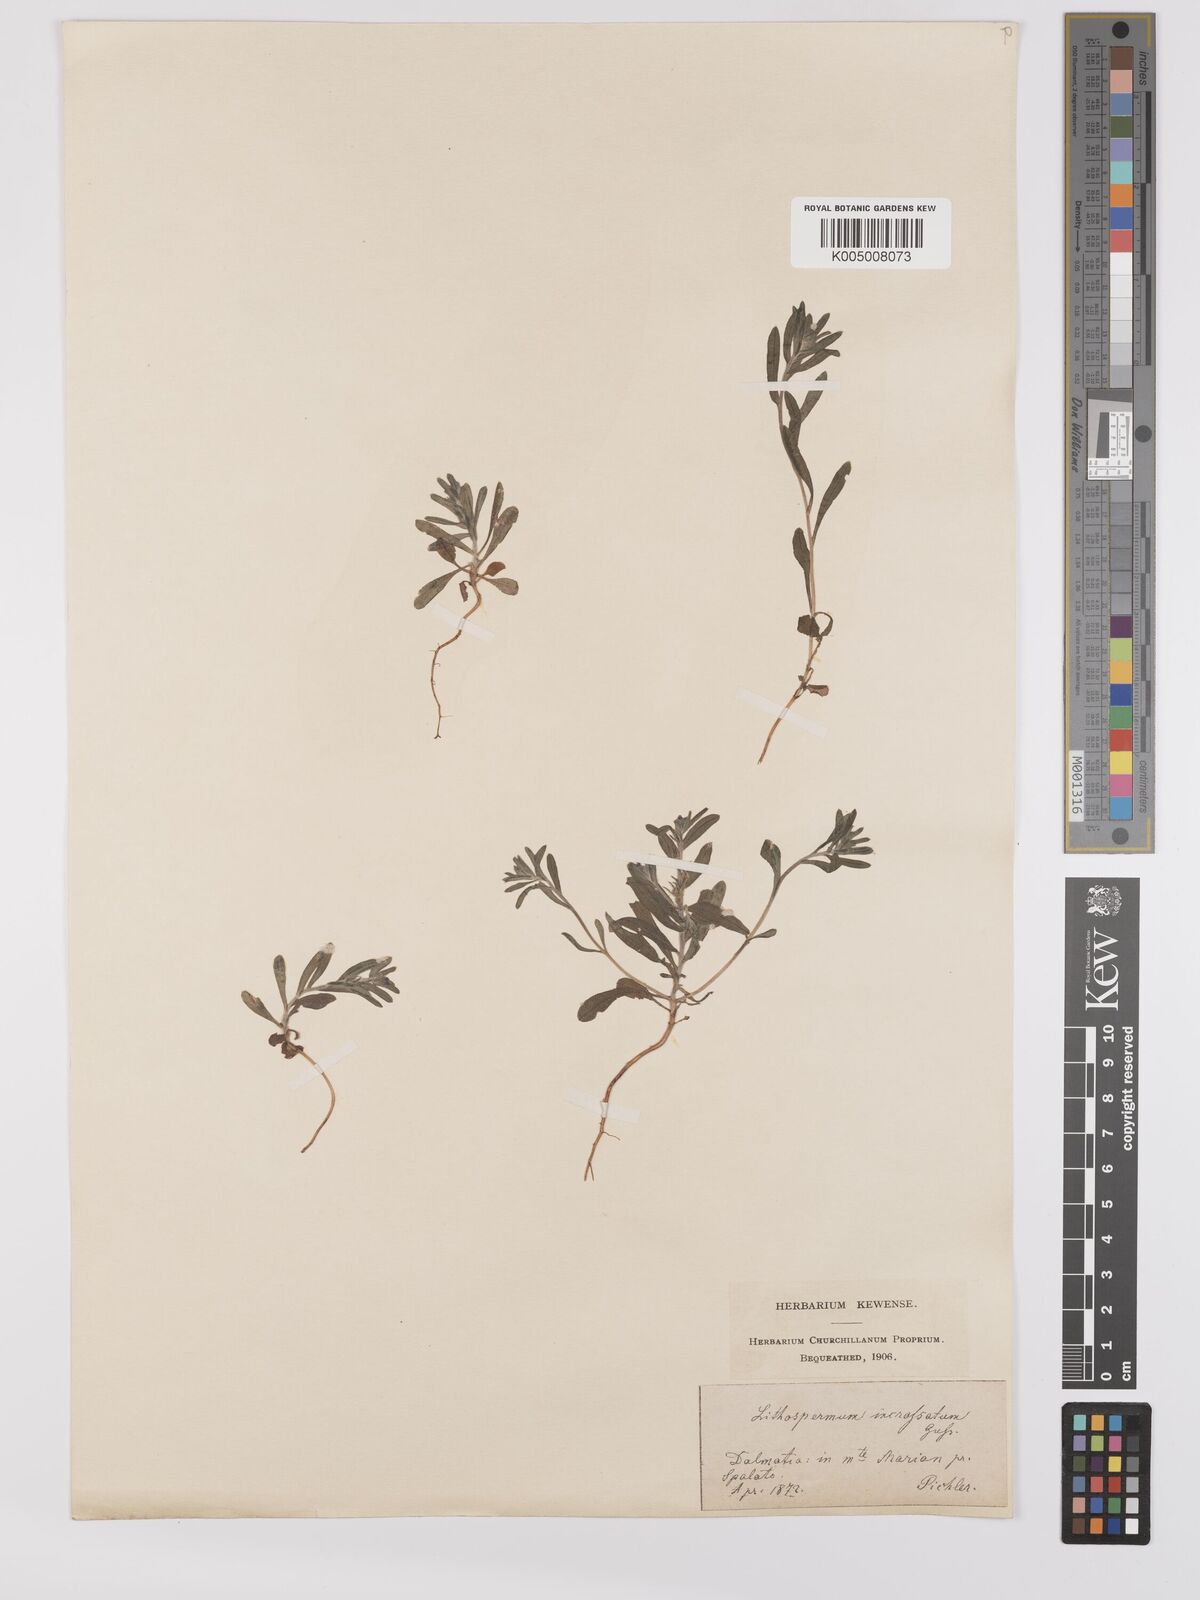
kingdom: Plantae
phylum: Tracheophyta
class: Magnoliopsida
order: Boraginales
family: Boraginaceae
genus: Buglossoides
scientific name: Buglossoides incrassata
